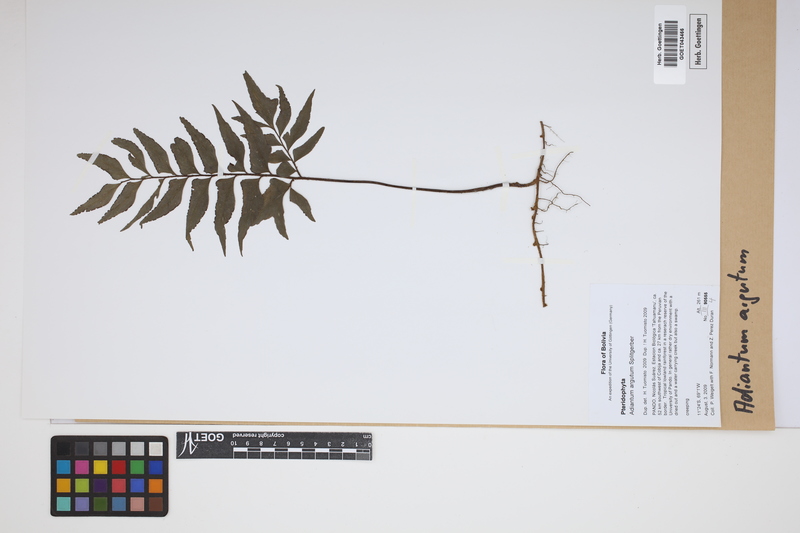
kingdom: Plantae
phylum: Tracheophyta
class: Polypodiopsida
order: Polypodiales
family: Pteridaceae
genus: Adiantum
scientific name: Adiantum argutum
